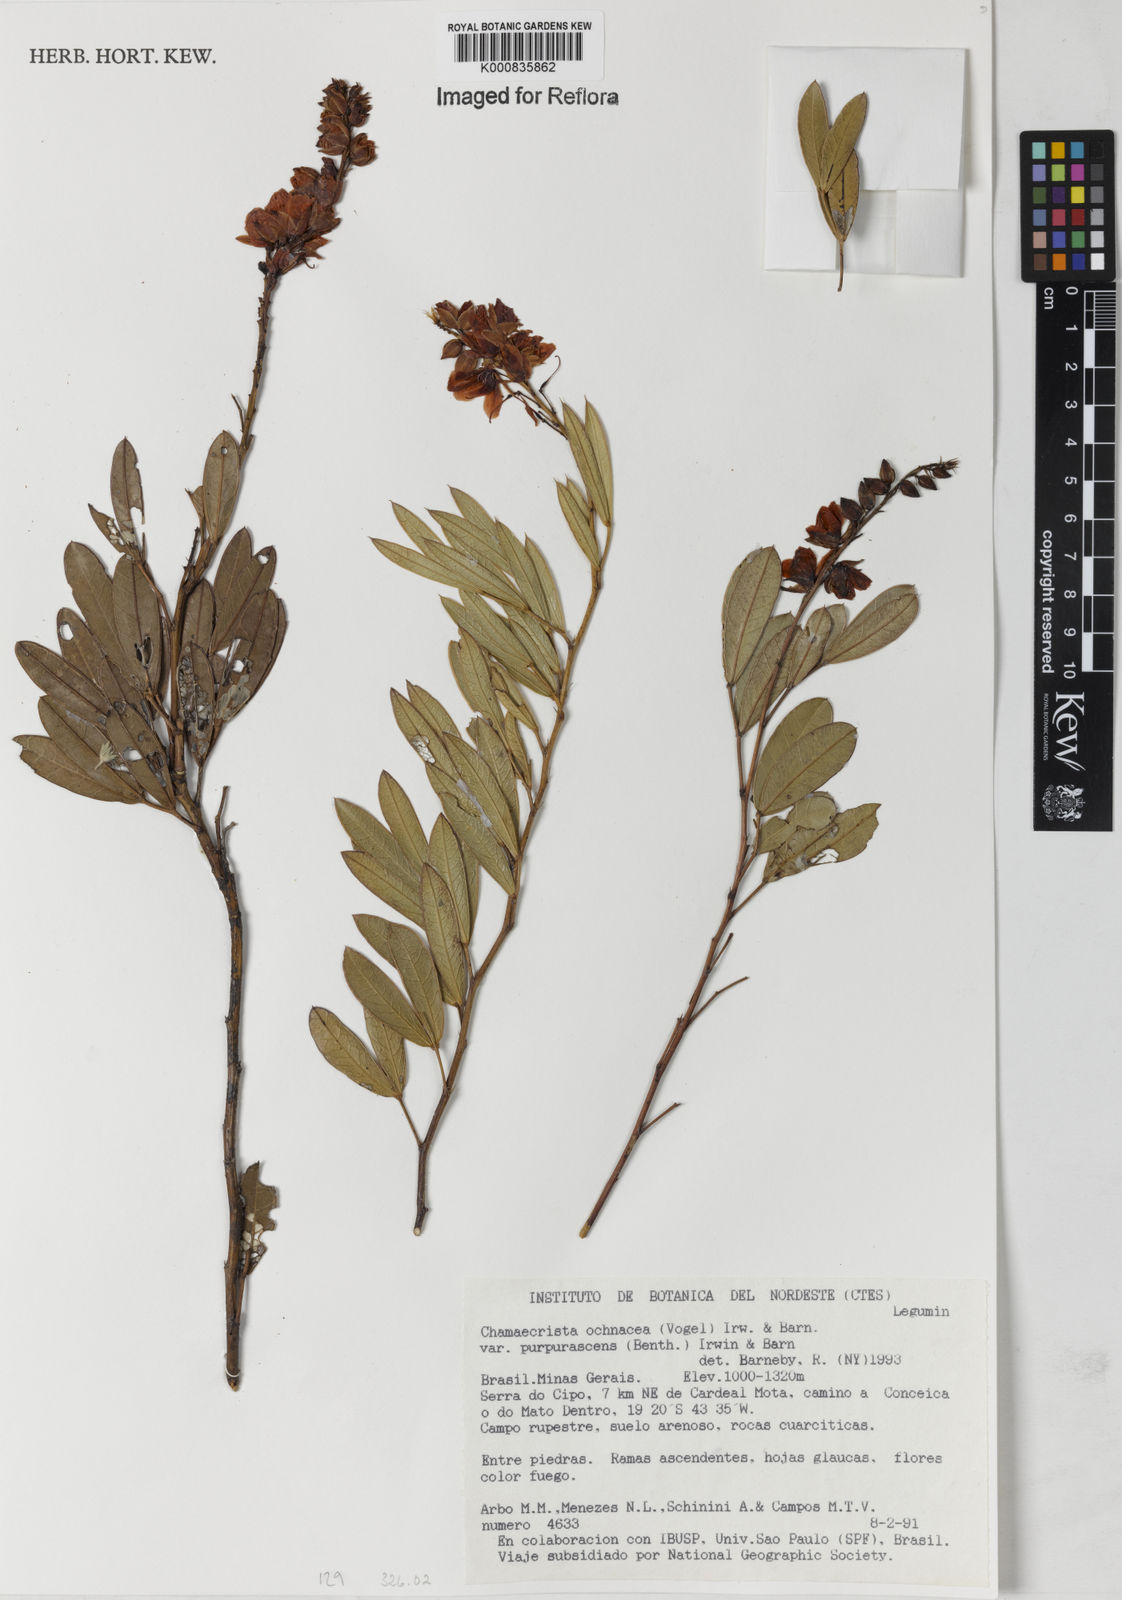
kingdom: Plantae
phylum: Tracheophyta
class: Magnoliopsida
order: Fabales
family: Fabaceae
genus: Chamaecrista
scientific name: Chamaecrista ochnacea
